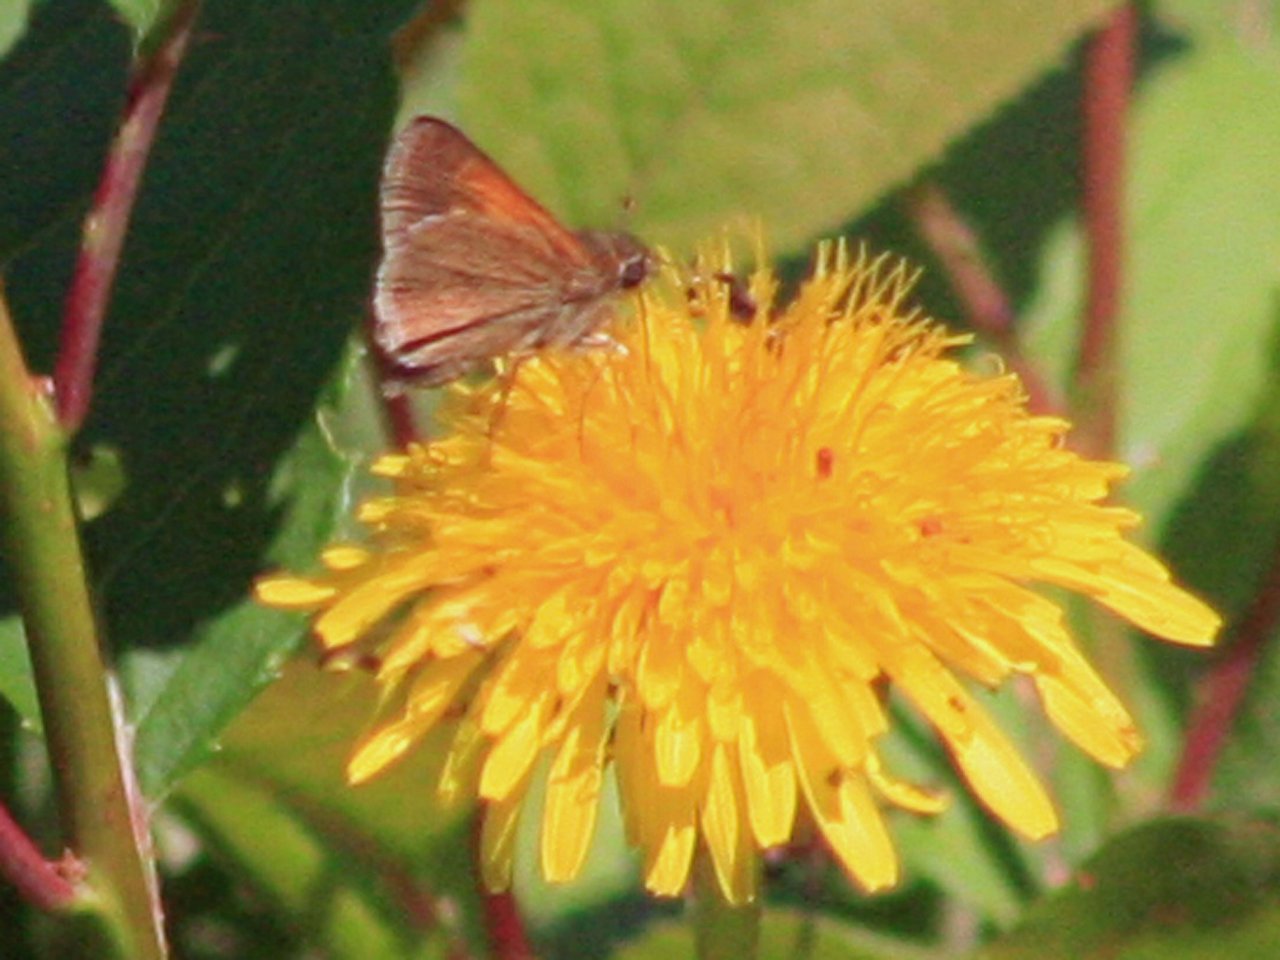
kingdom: Animalia
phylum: Arthropoda
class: Insecta
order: Lepidoptera
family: Hesperiidae
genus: Polites
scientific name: Polites themistocles
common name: Tawny-edged Skipper
